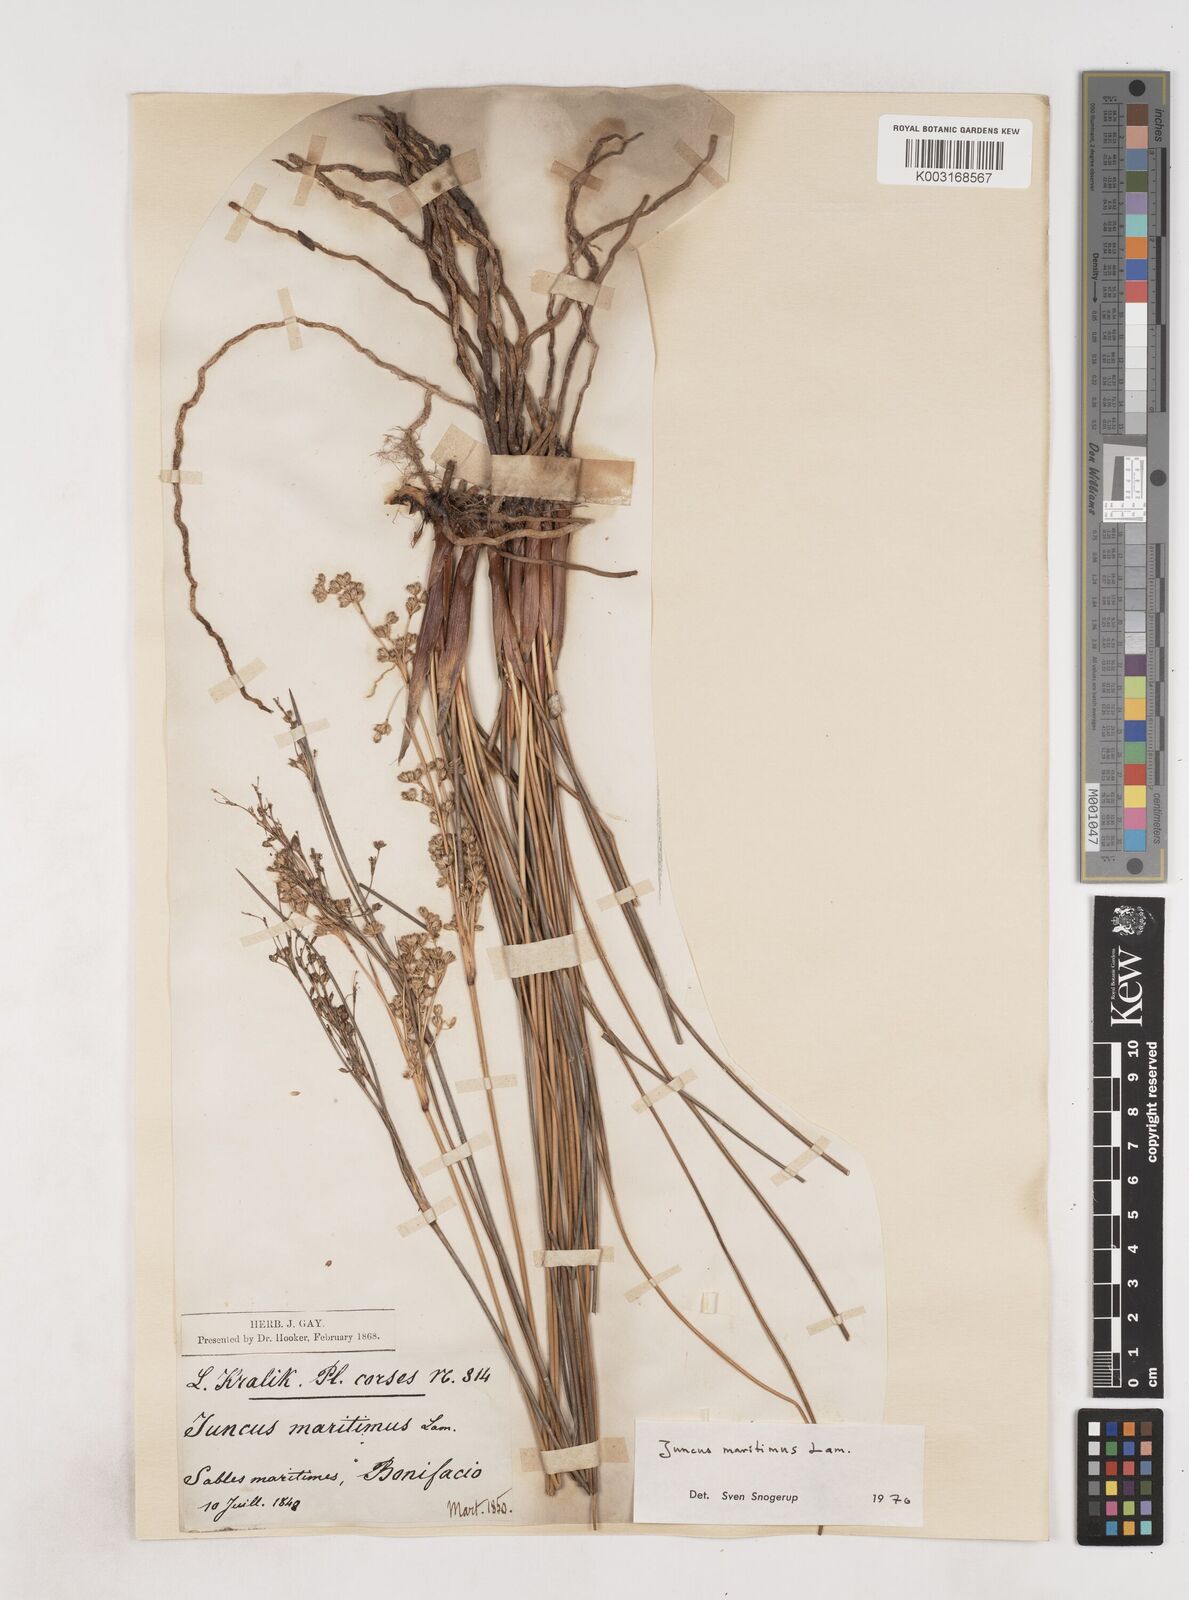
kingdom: Plantae
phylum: Tracheophyta
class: Liliopsida
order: Poales
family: Juncaceae
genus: Juncus
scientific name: Juncus maritimus
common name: Sea rush
